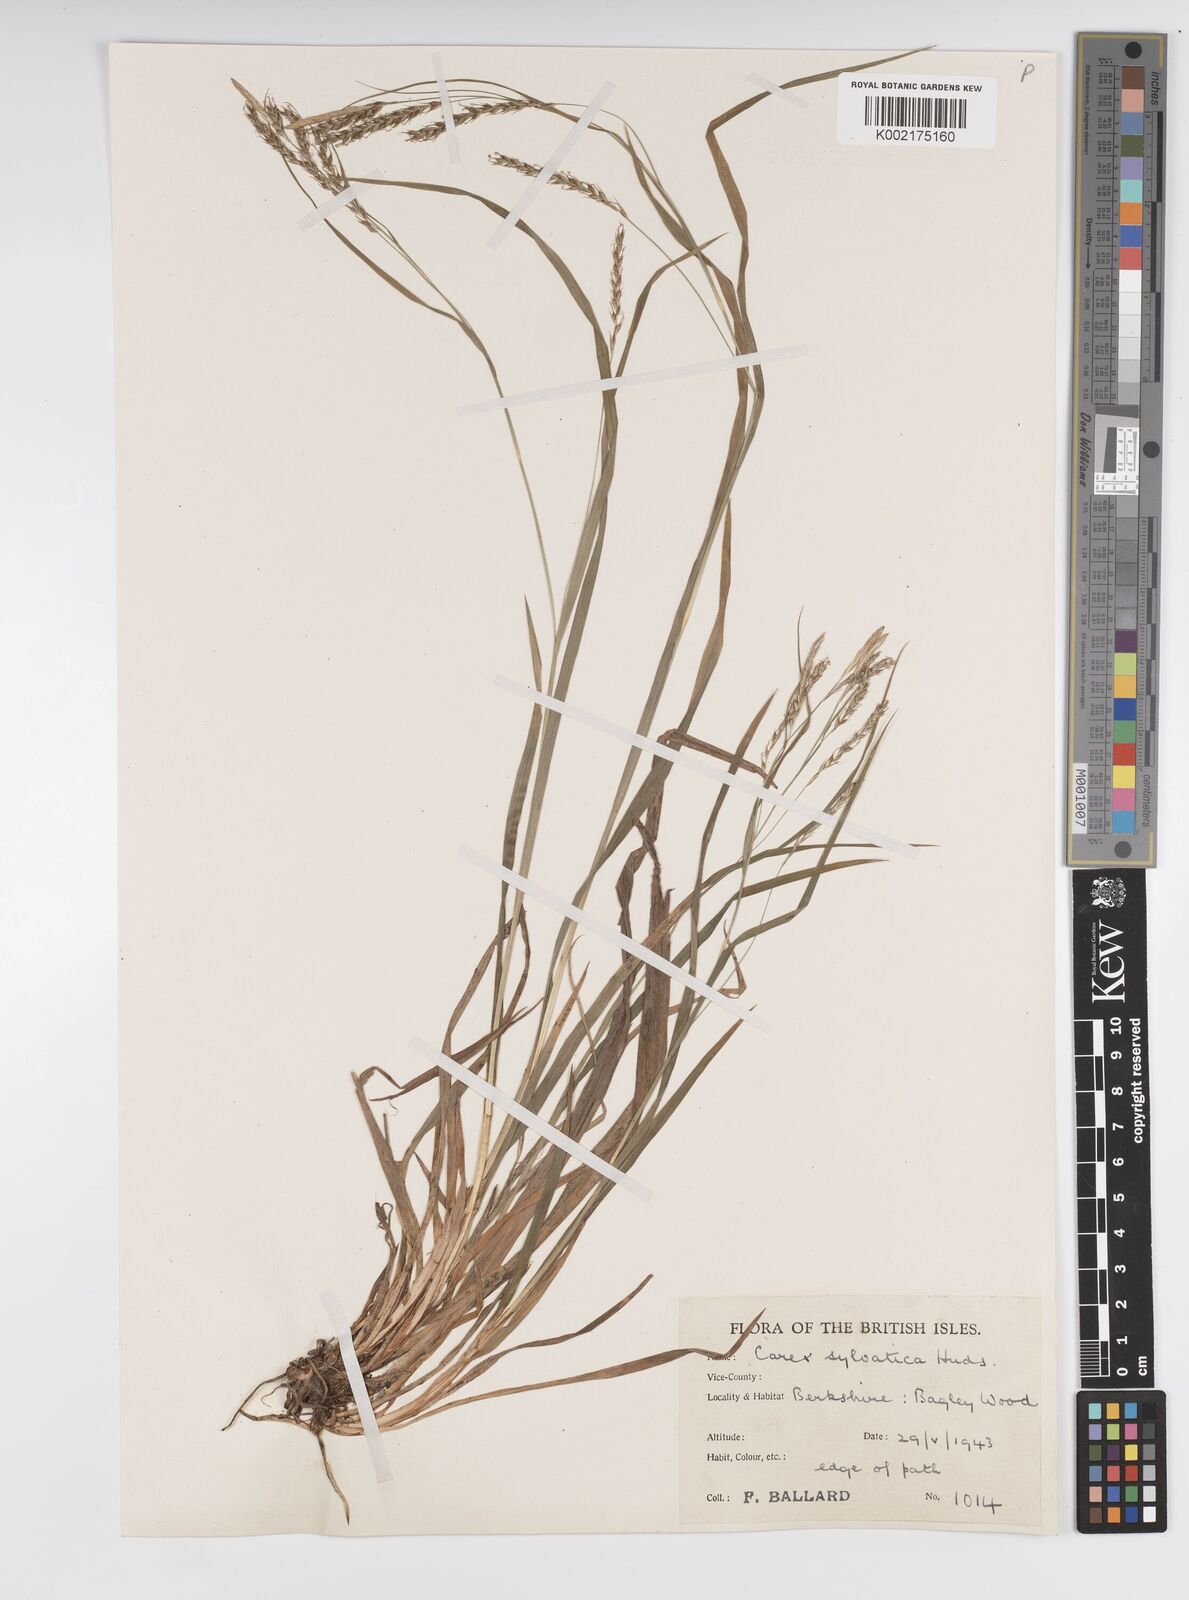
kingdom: Plantae
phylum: Tracheophyta
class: Liliopsida
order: Poales
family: Cyperaceae
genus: Carex
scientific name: Carex sylvatica
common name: Wood-sedge
